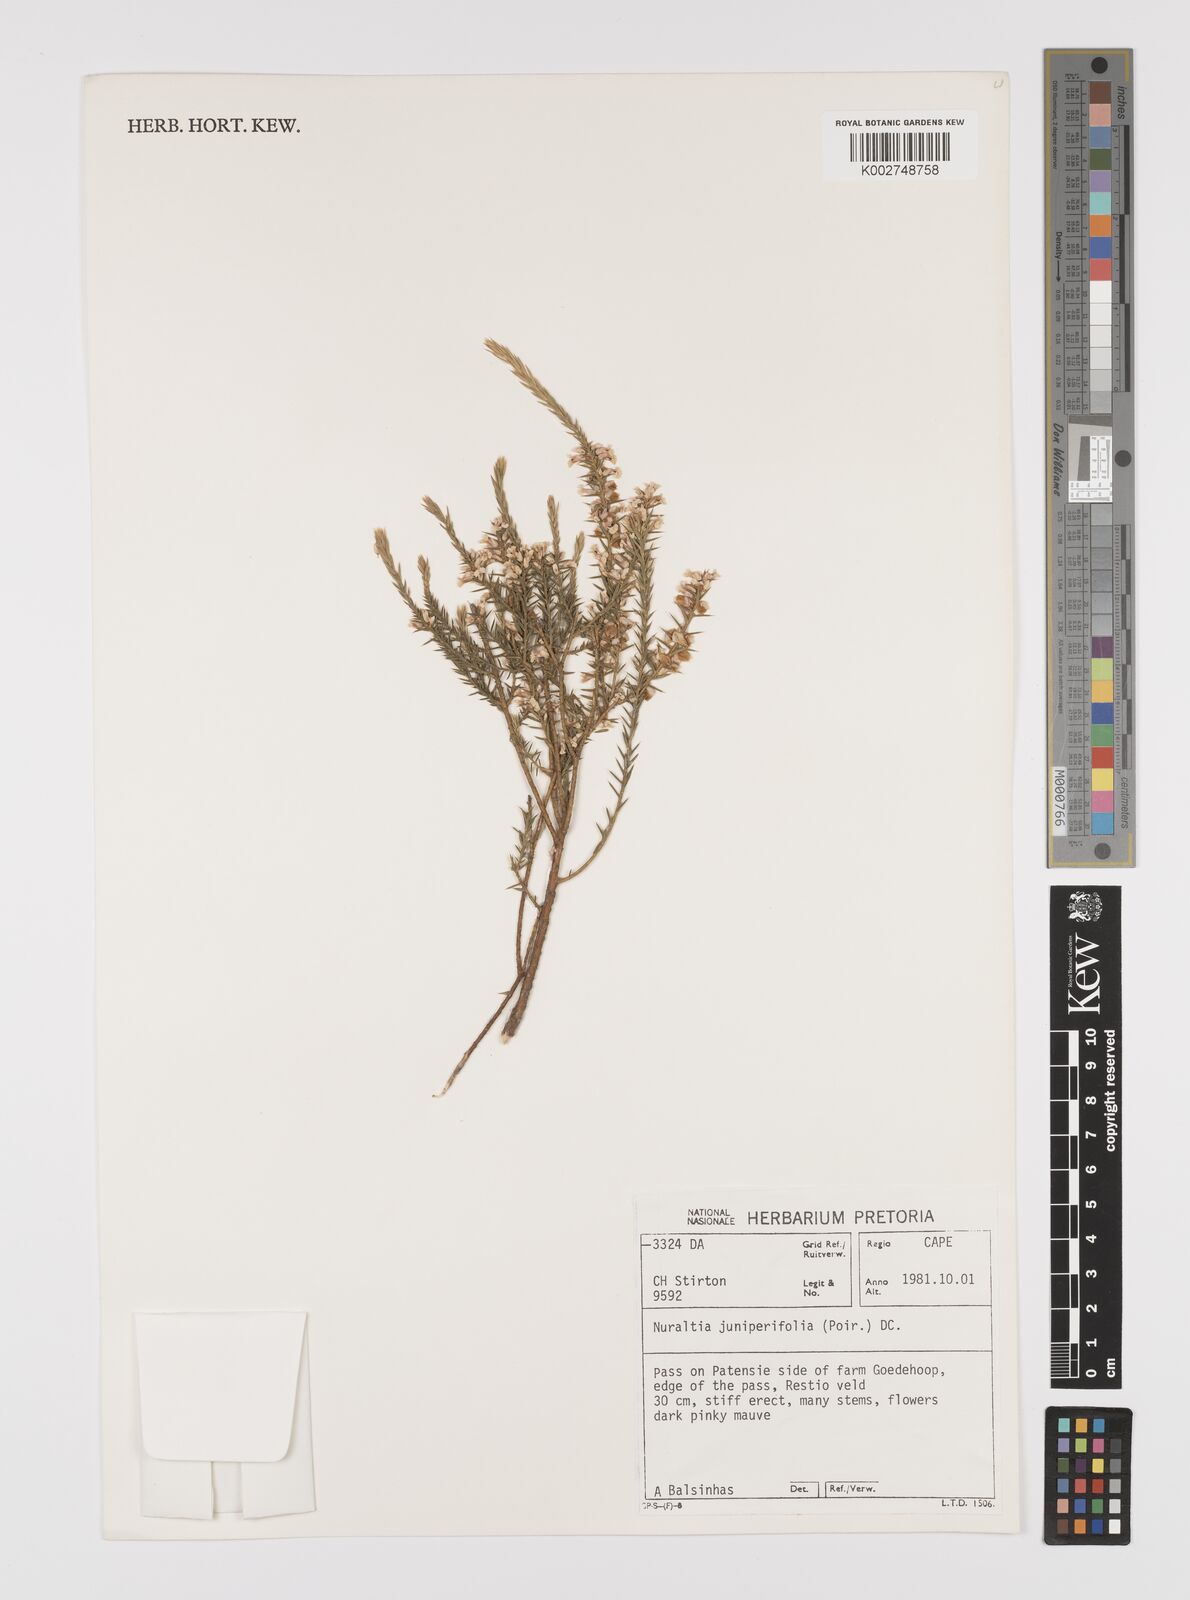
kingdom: Plantae
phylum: Tracheophyta
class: Magnoliopsida
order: Fabales
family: Polygalaceae
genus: Muraltia
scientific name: Muraltia juniperifolia
